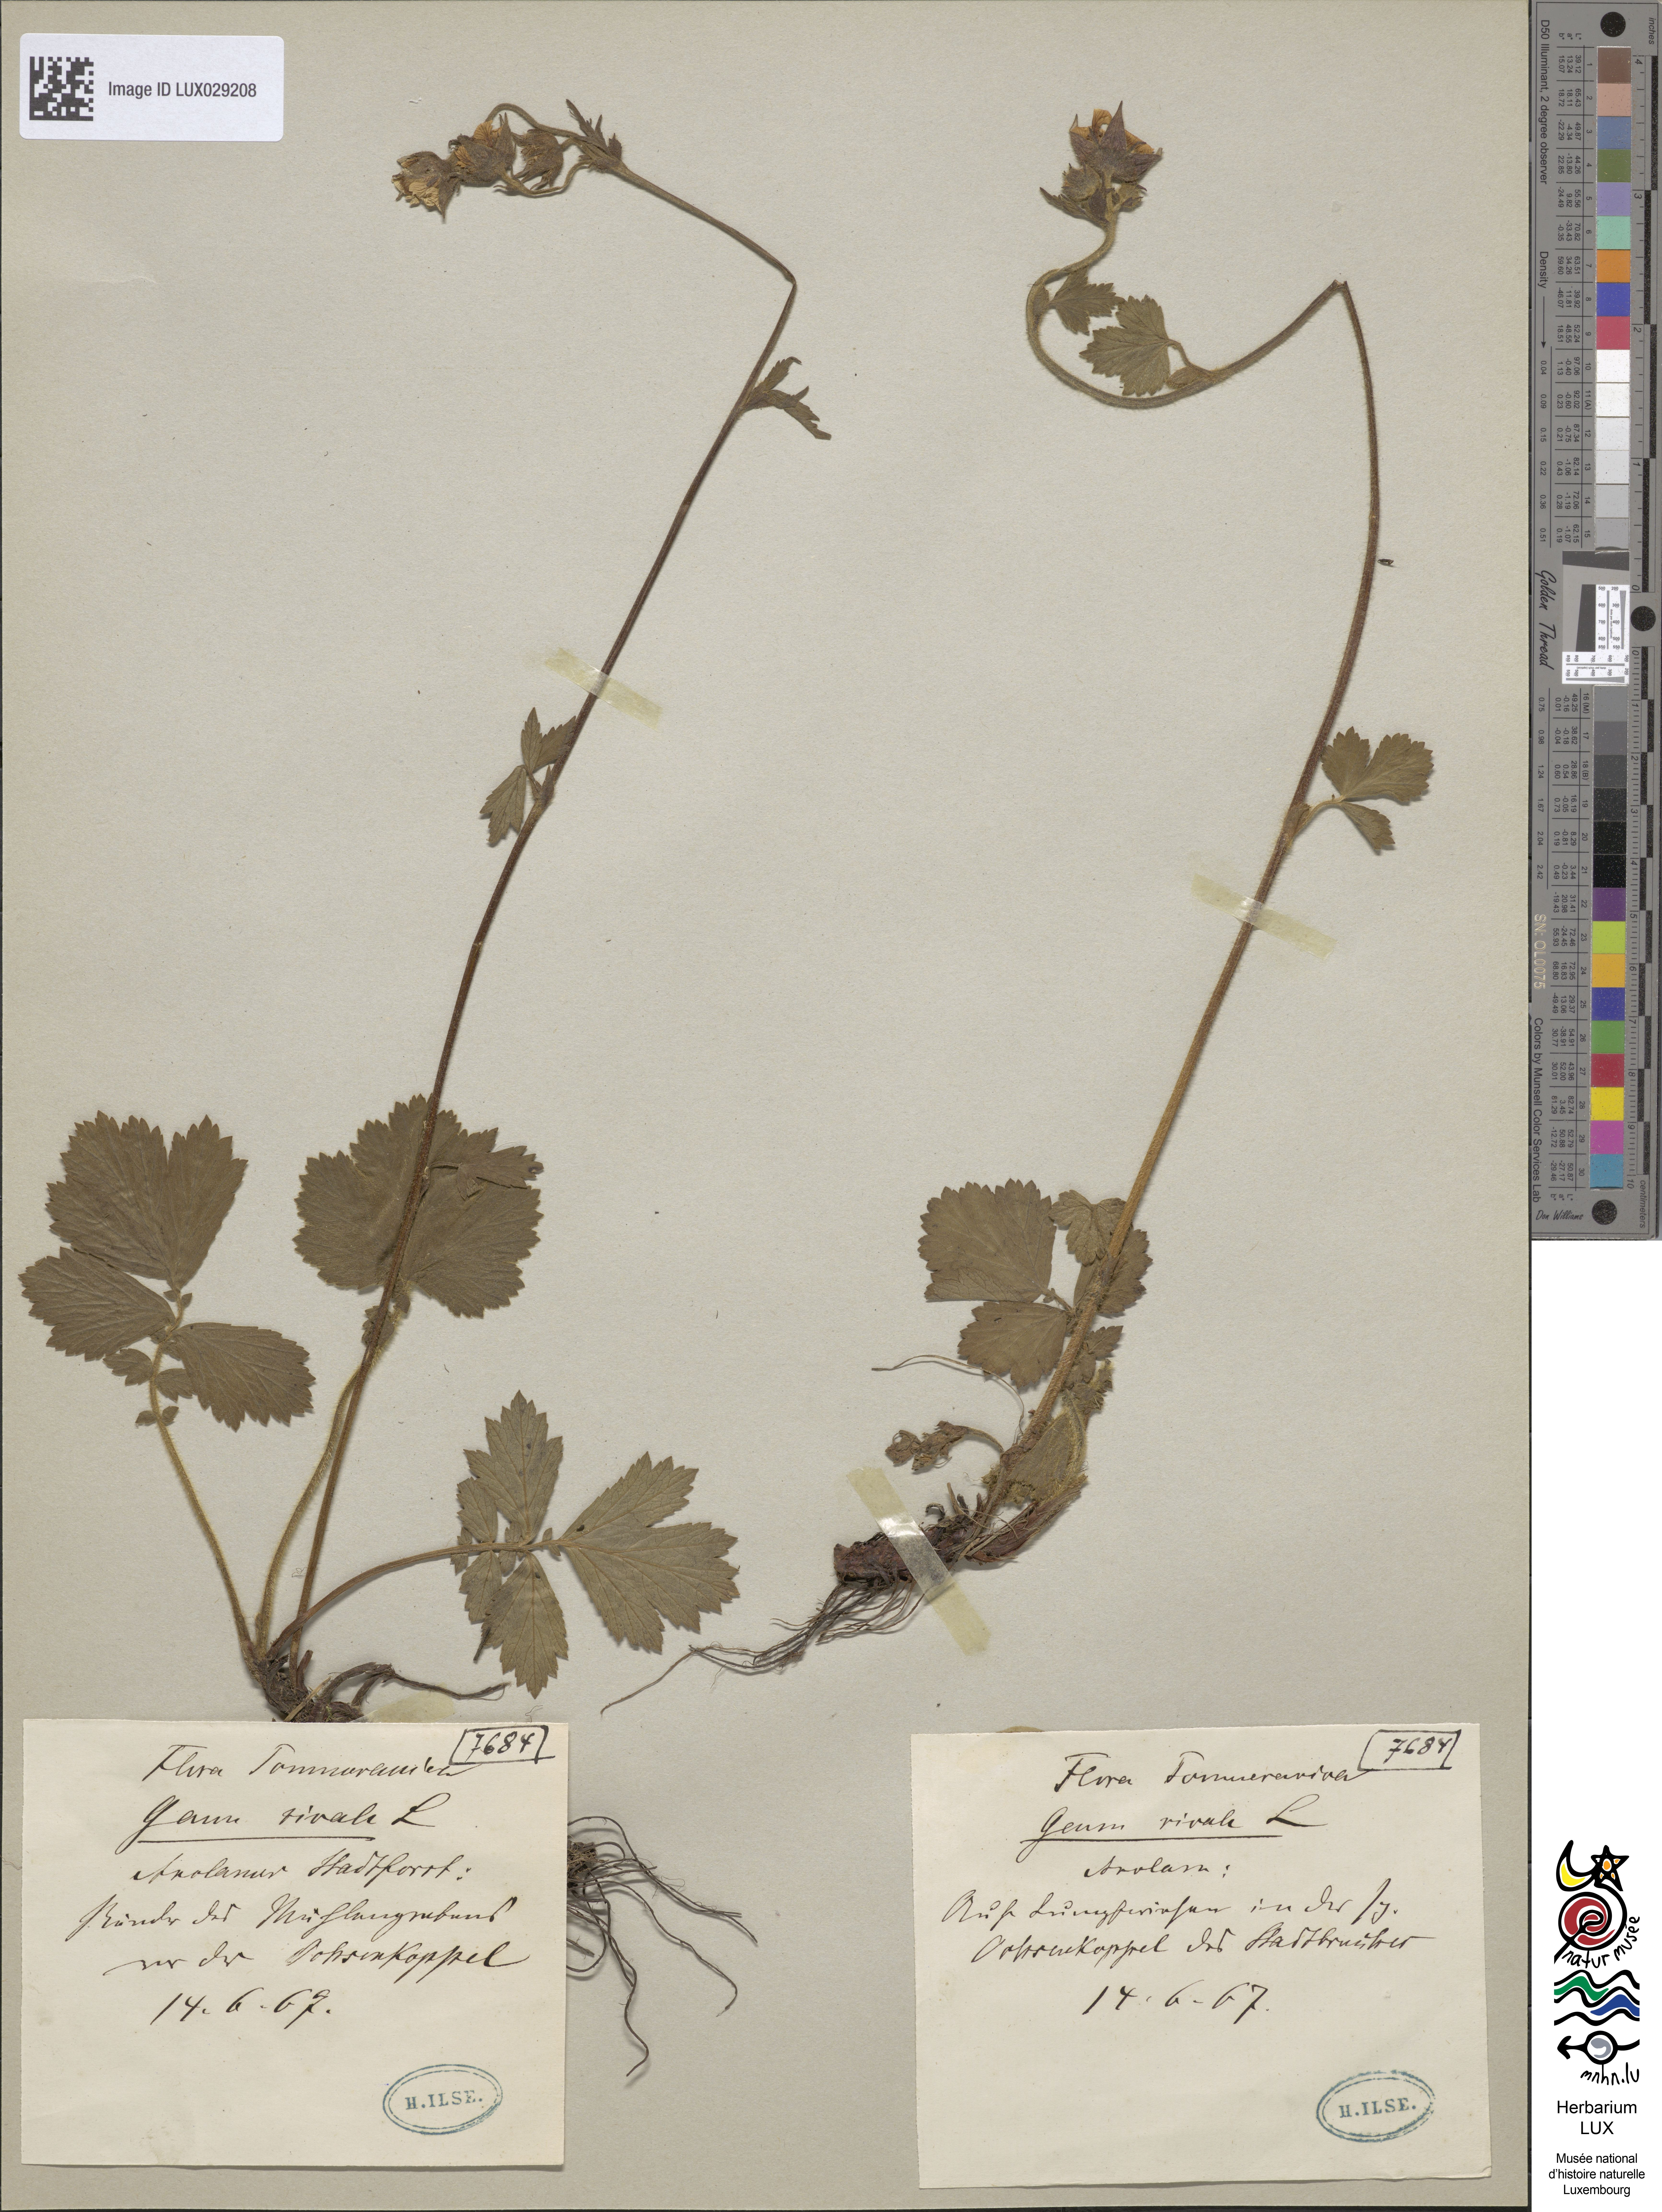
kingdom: Plantae
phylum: Tracheophyta
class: Magnoliopsida
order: Rosales
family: Rosaceae
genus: Geum
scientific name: Geum rivale
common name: Water avens
